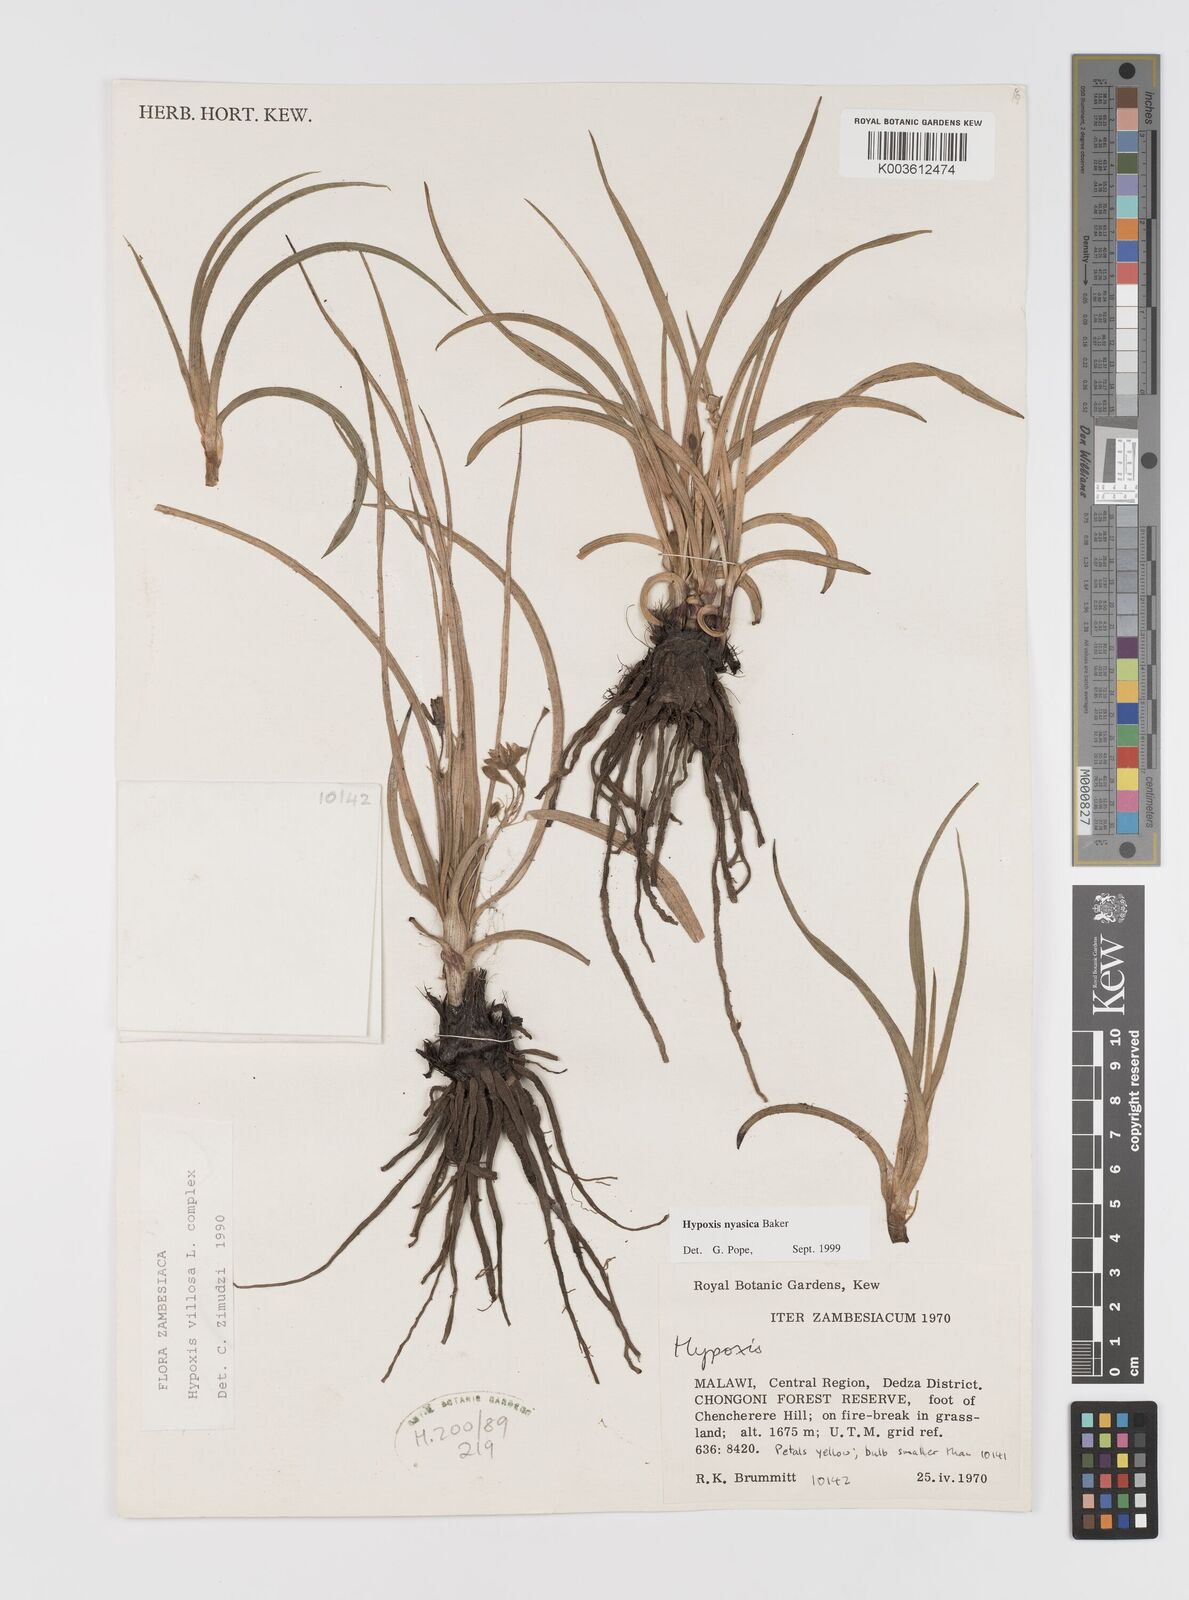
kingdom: Plantae
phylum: Tracheophyta
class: Liliopsida
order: Asparagales
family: Hypoxidaceae
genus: Hypoxis
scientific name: Hypoxis nyasica
